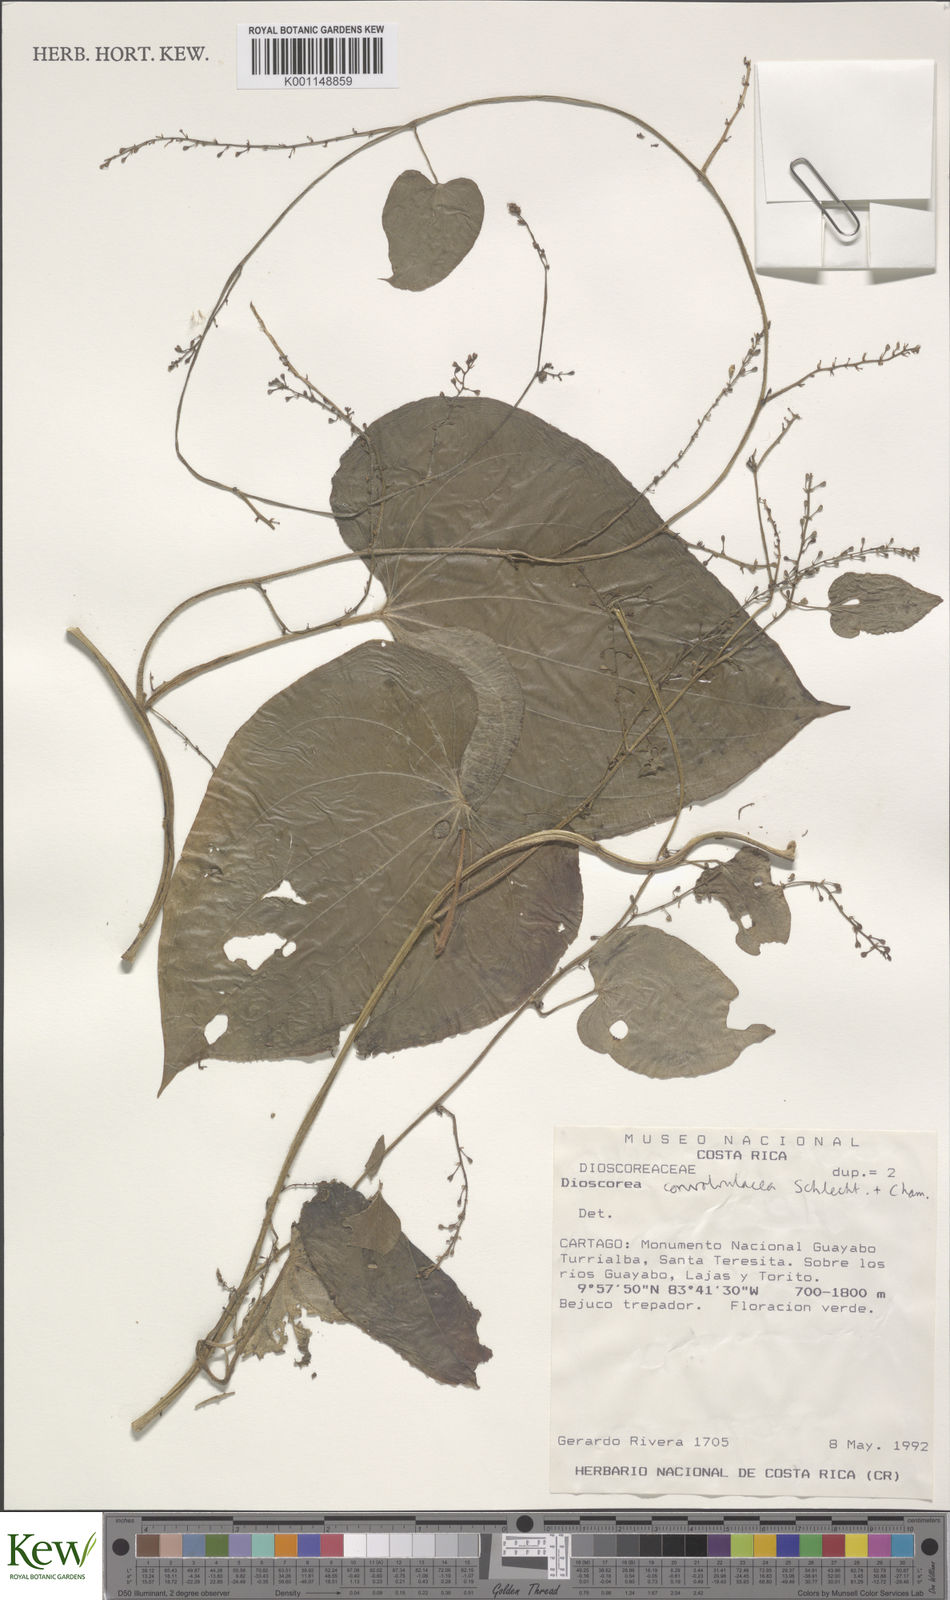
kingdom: Plantae
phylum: Tracheophyta
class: Liliopsida
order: Dioscoreales
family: Dioscoreaceae
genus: Dioscorea
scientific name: Dioscorea convolvulacea
